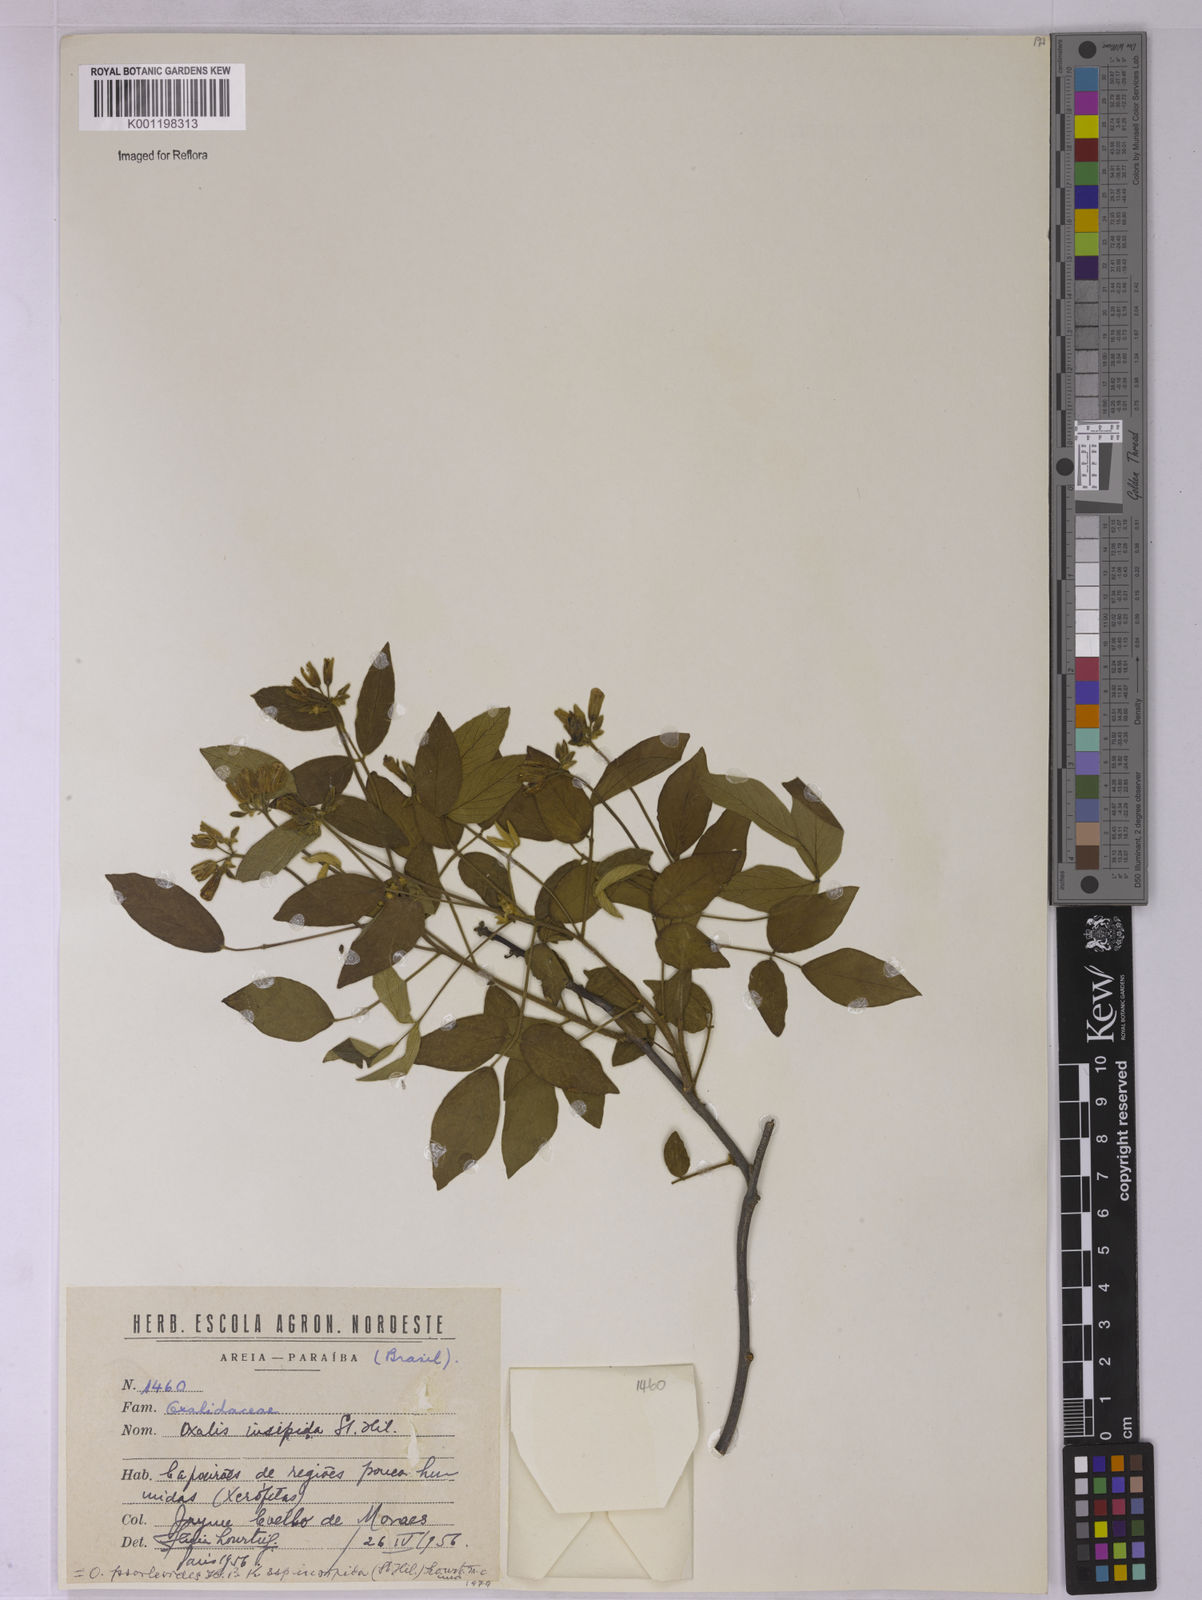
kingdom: Plantae
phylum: Tracheophyta
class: Magnoliopsida
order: Oxalidales
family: Oxalidaceae
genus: Oxalis
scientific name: Oxalis psoraleoides
